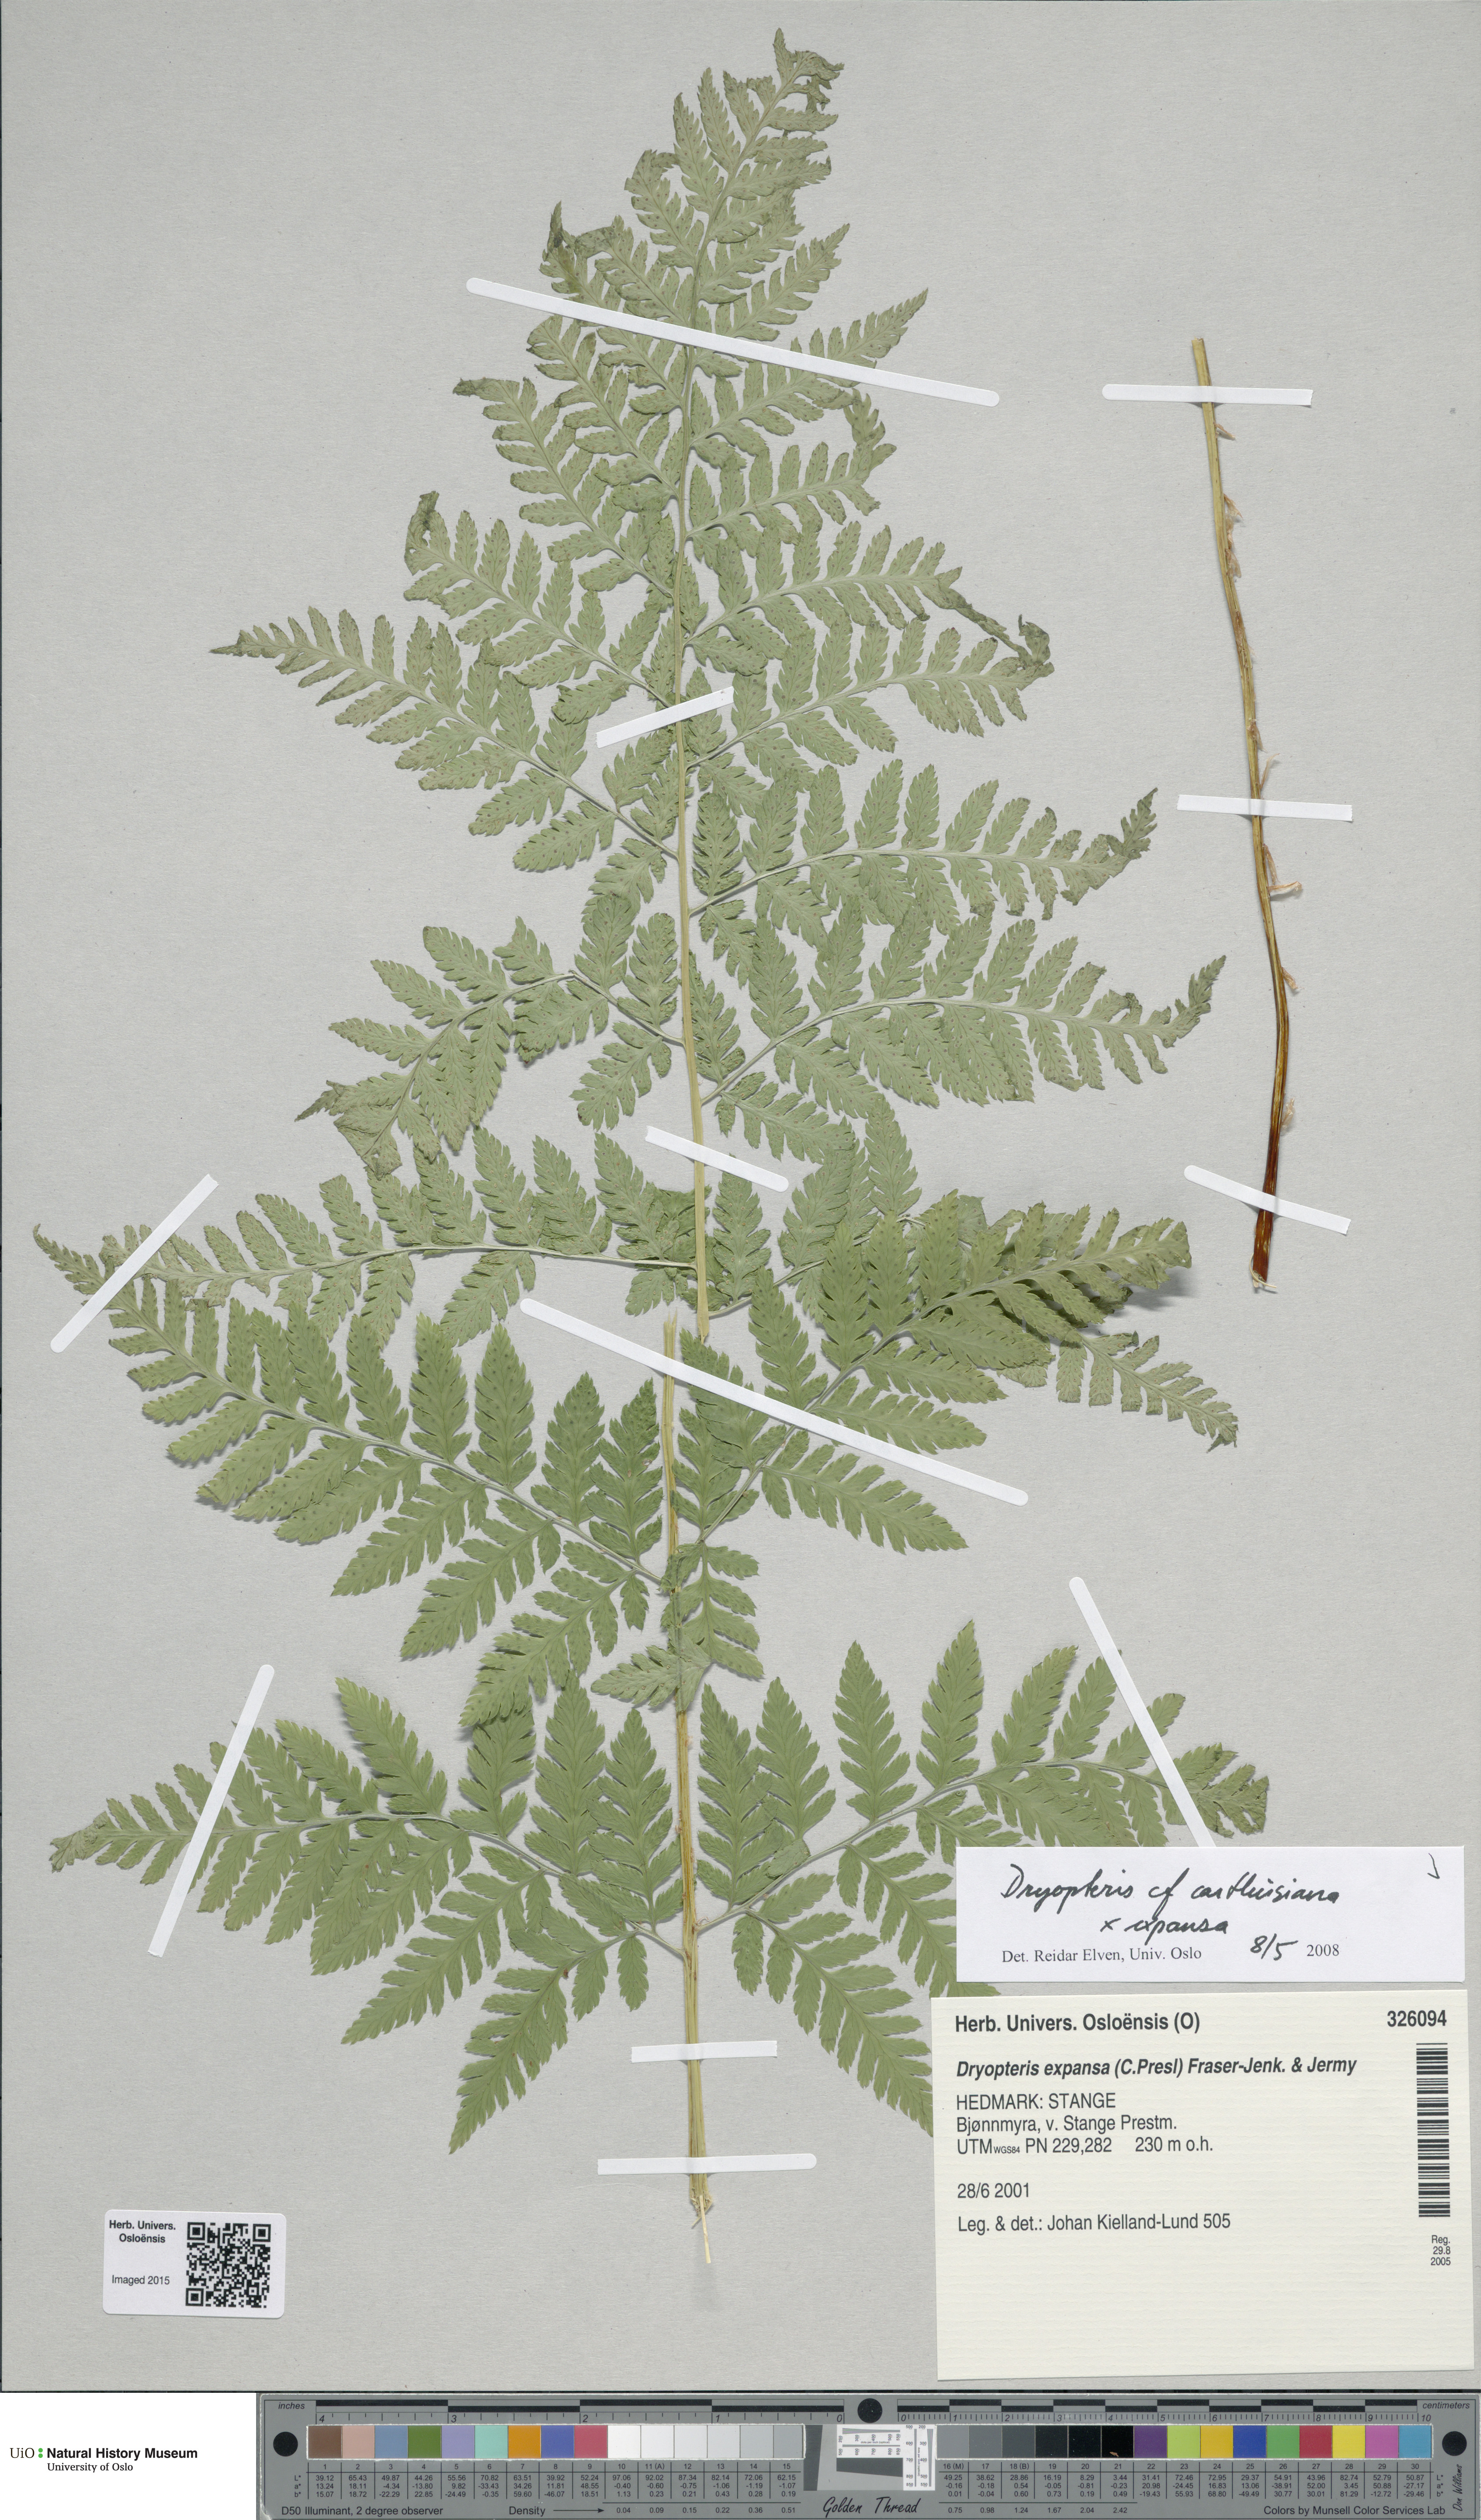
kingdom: Plantae
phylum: Tracheophyta
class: Polypodiopsida
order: Polypodiales
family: Dryopteridaceae
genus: Dryopteris
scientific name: Dryopteris
